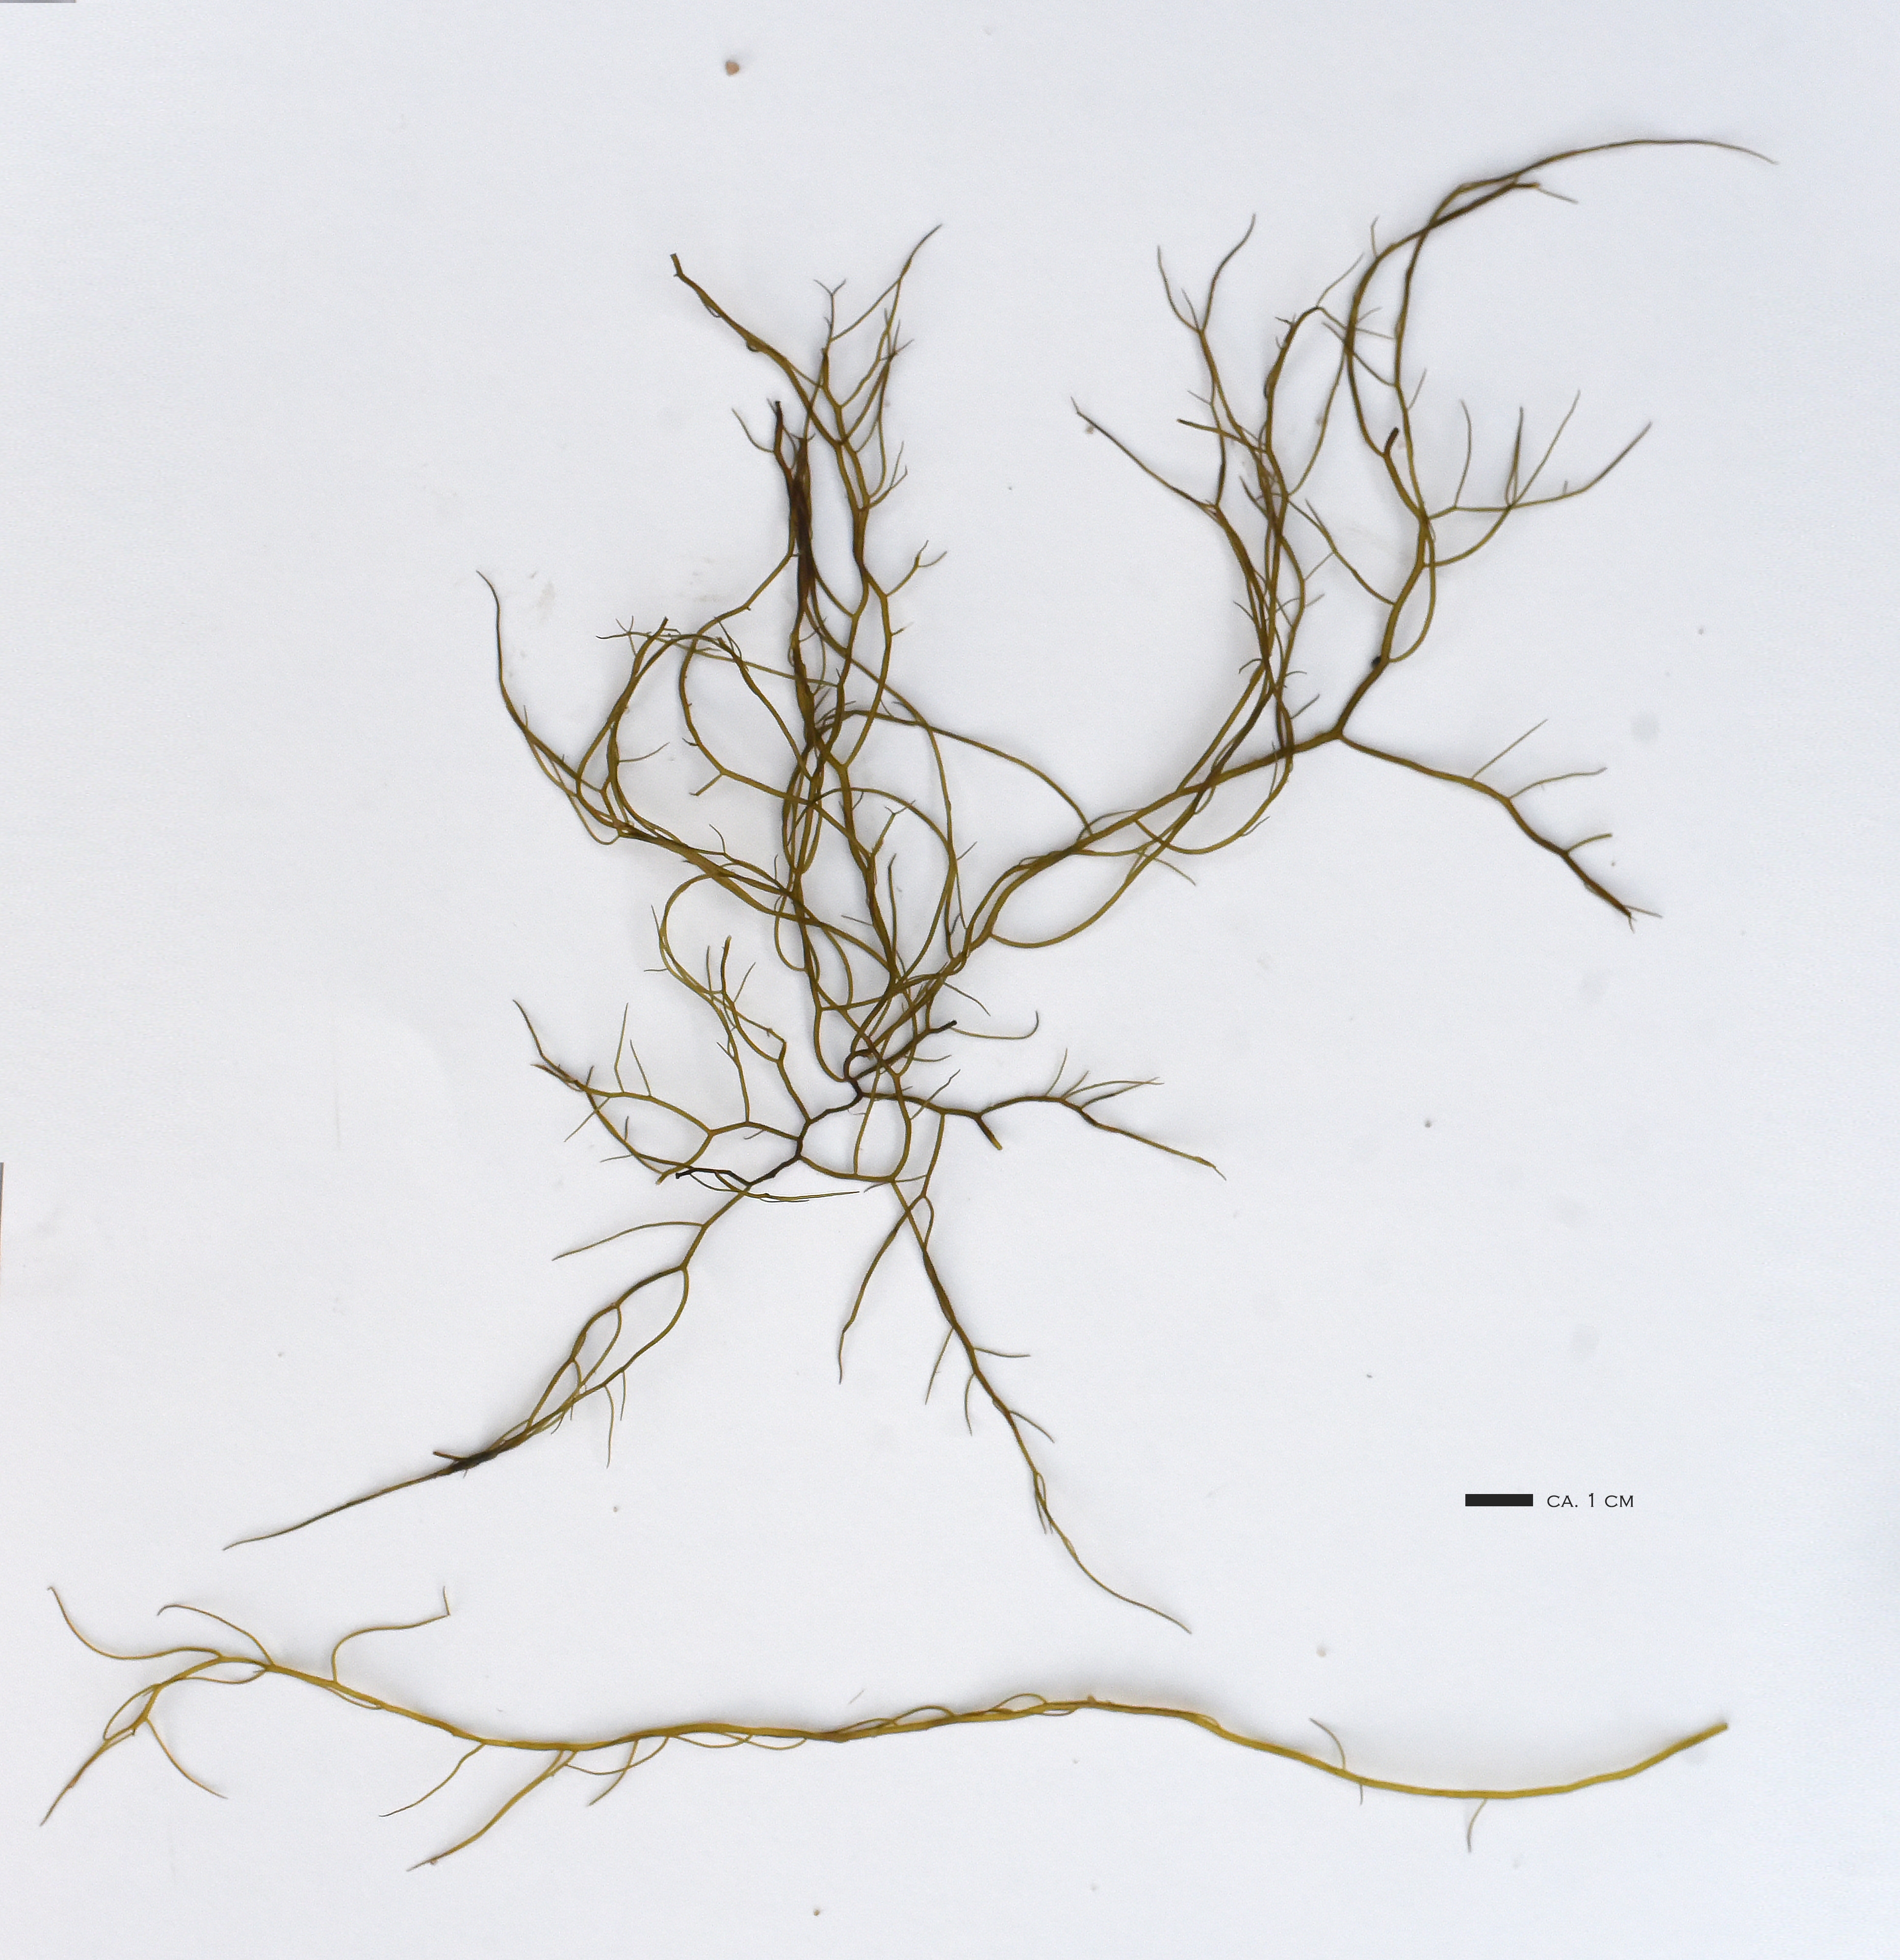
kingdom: Plantae
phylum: Rhodophyta
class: Florideophyceae
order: Gracilariales
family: Gracilariaceae
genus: Gracilaria
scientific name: Gracilaria longissima
